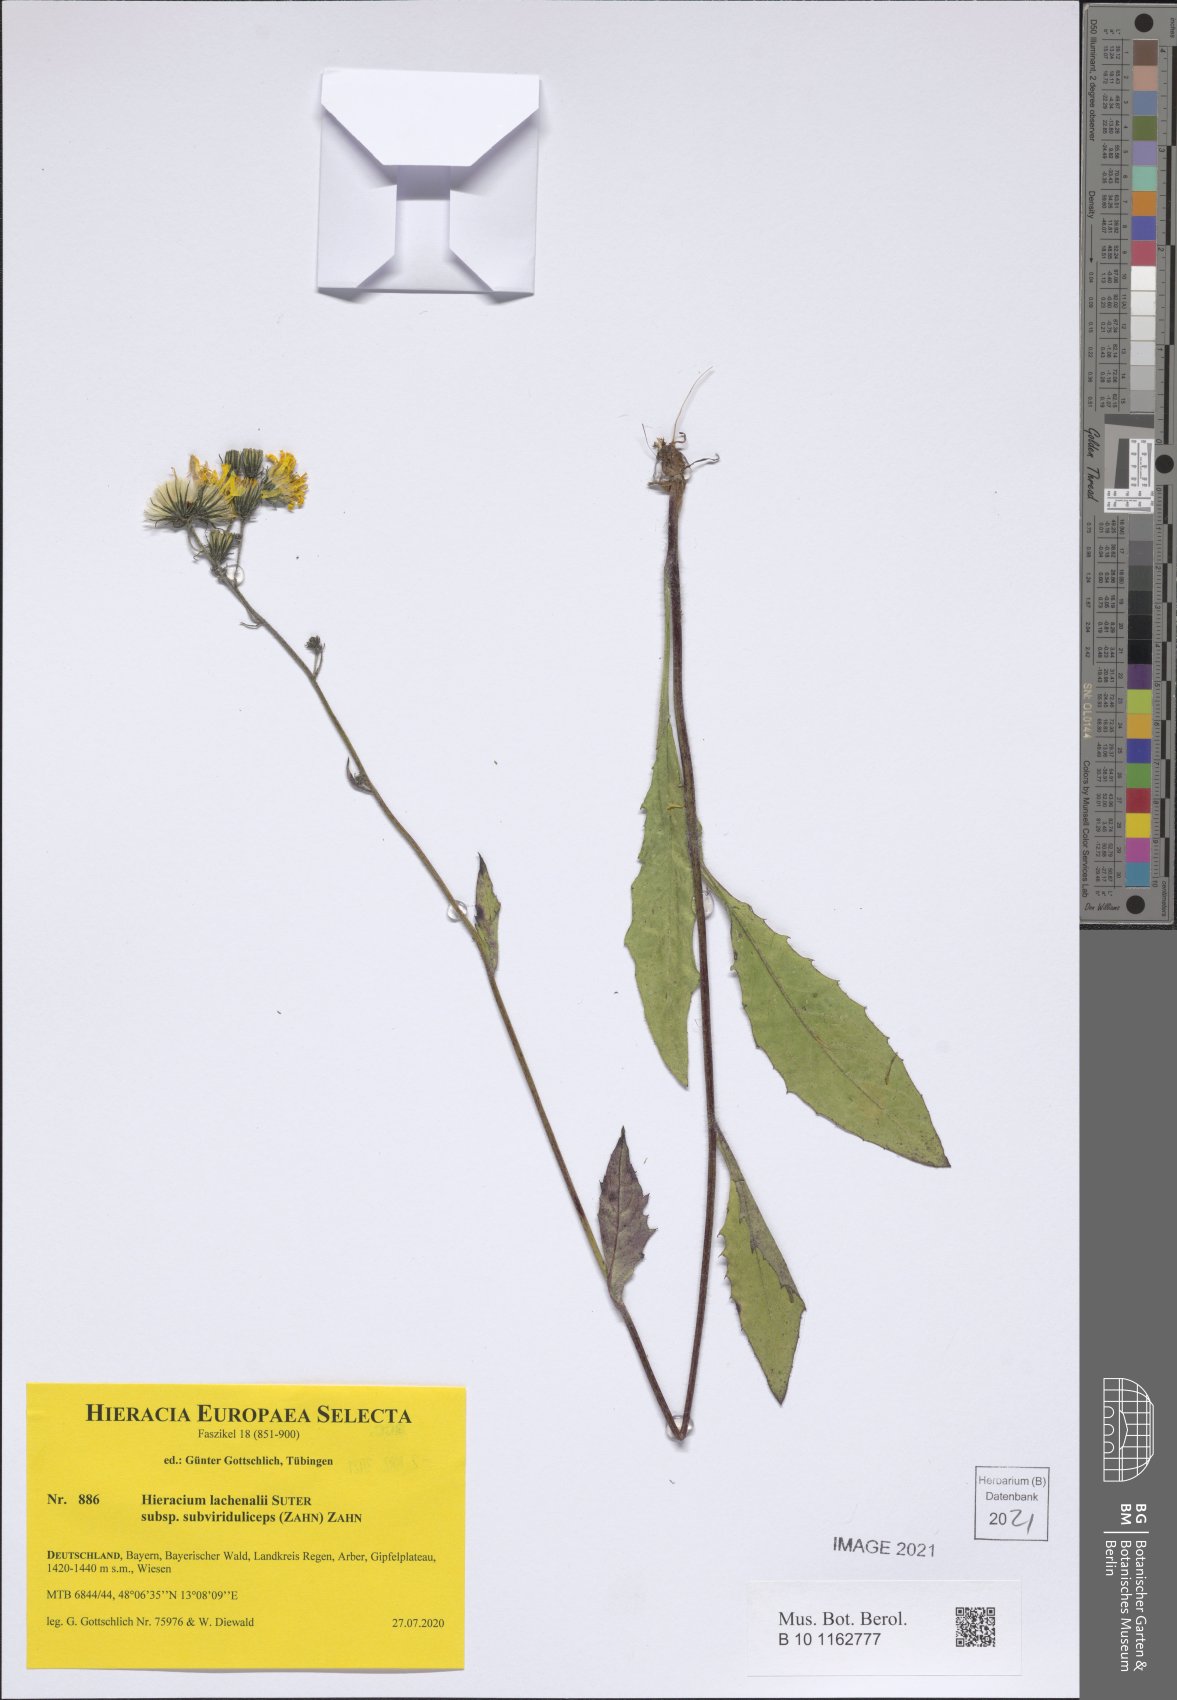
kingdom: Plantae
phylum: Tracheophyta
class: Magnoliopsida
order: Asterales
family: Asteraceae
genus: Hieracium
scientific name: Hieracium lachenalii
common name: Common hawkweed
